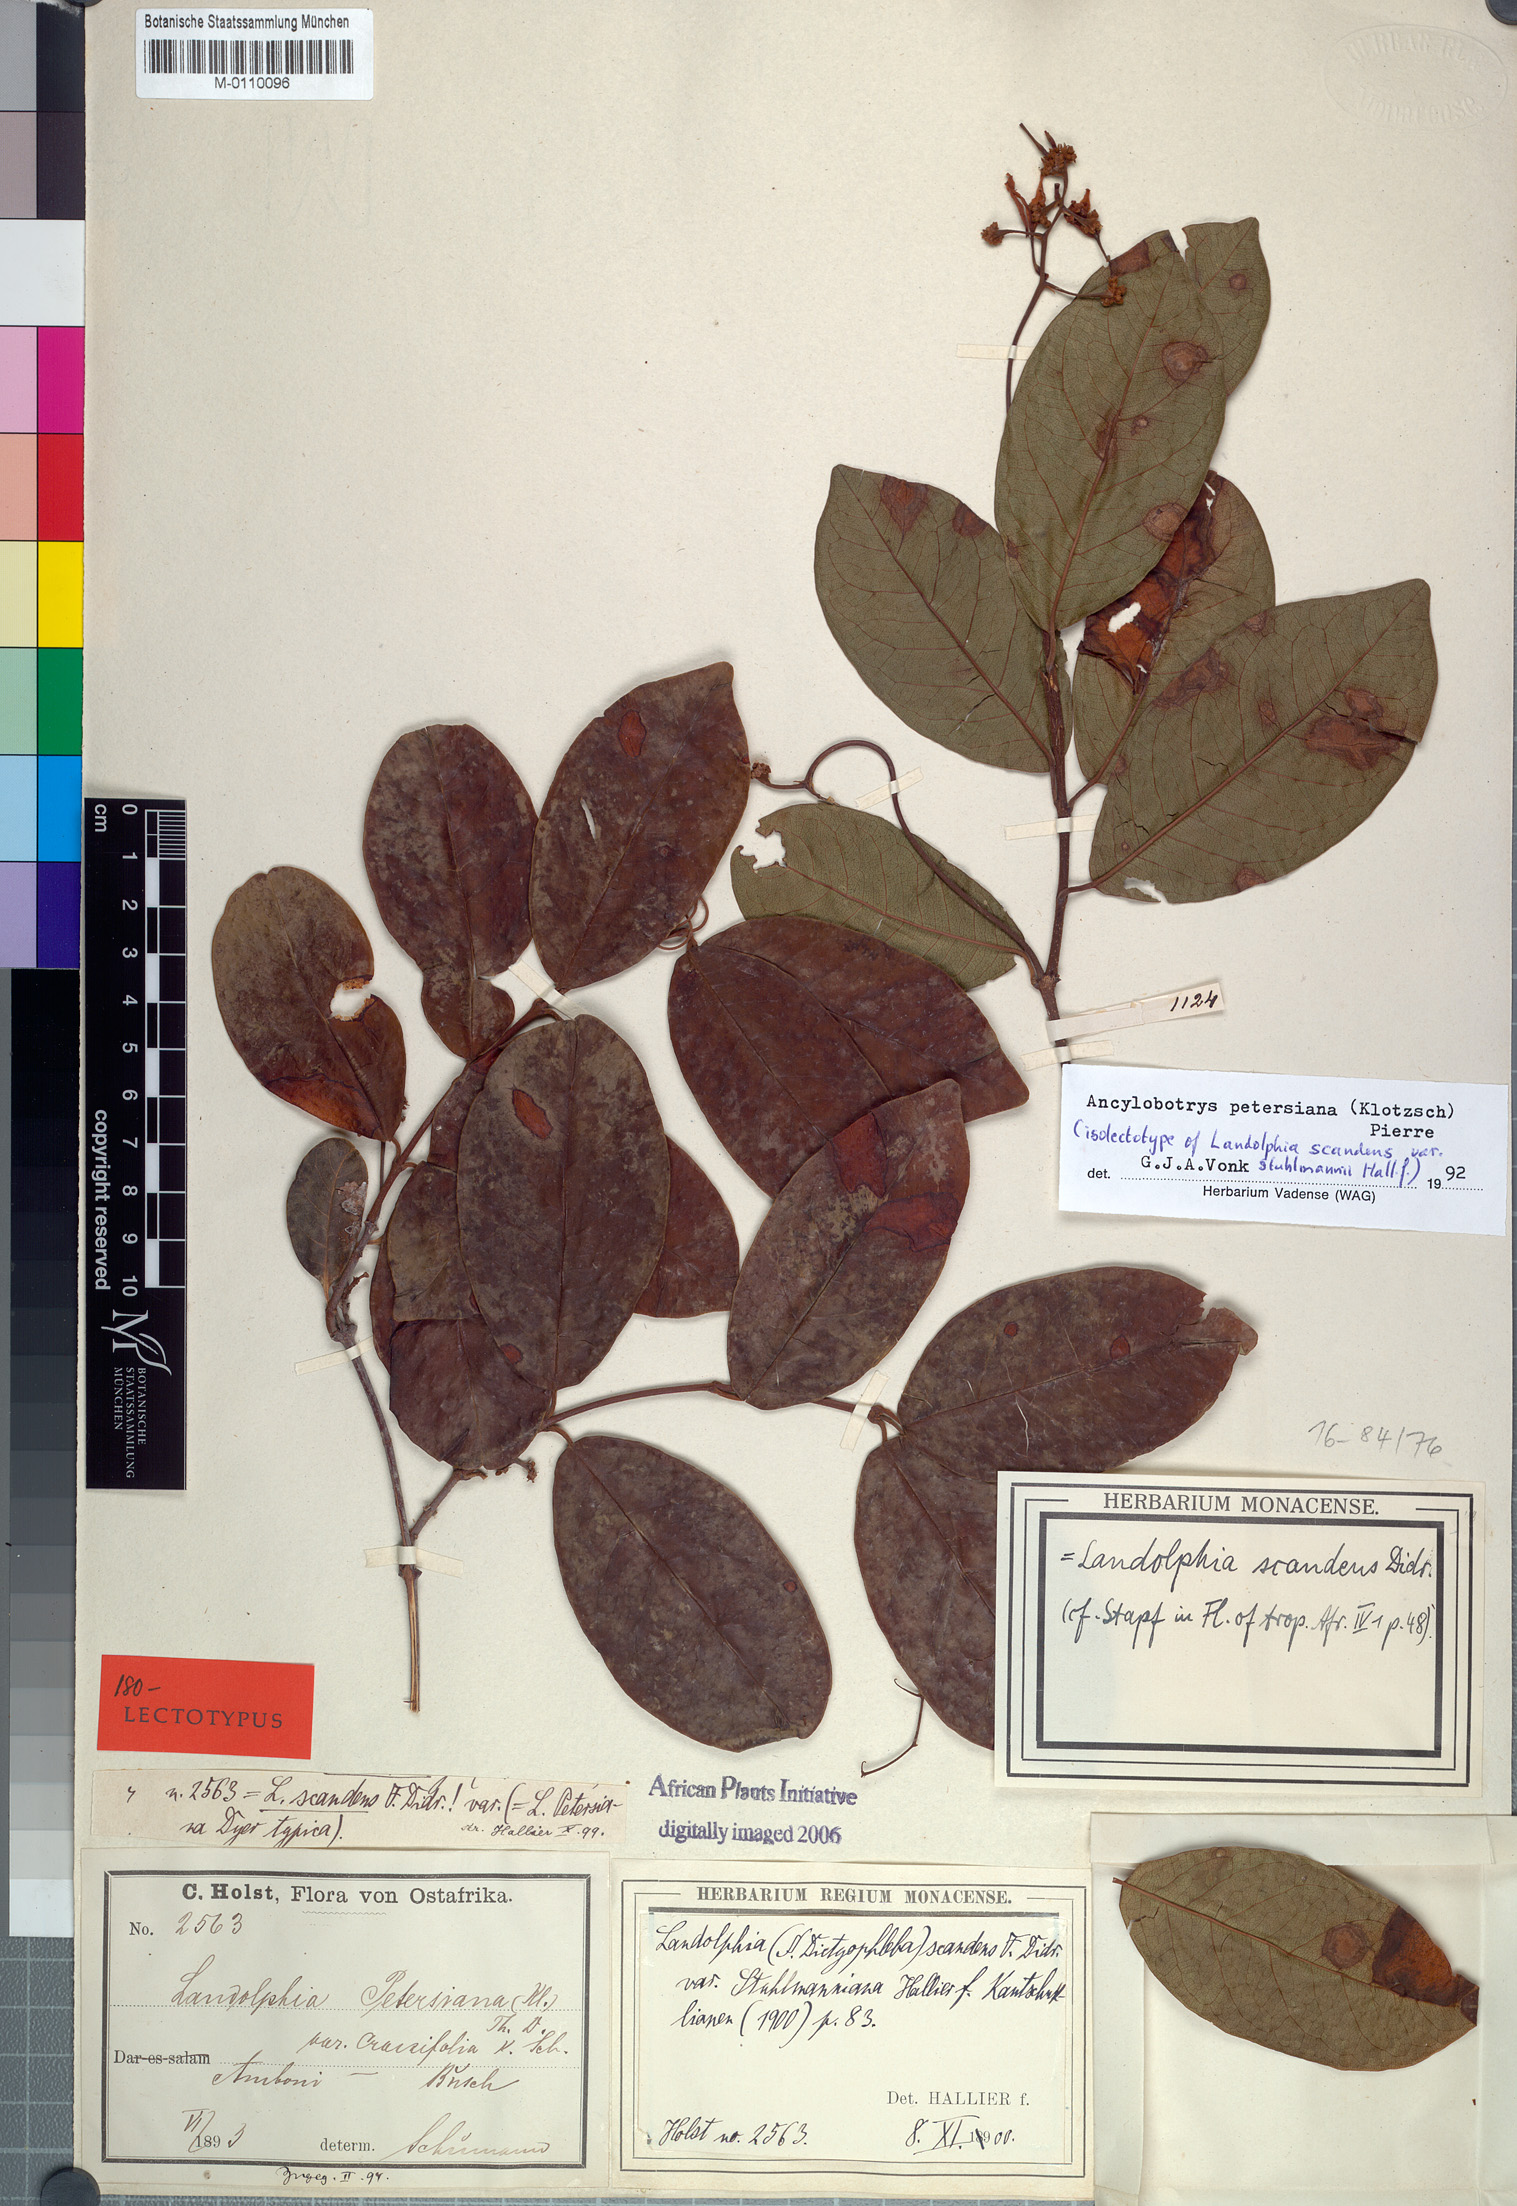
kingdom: Plantae
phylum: Tracheophyta
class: Magnoliopsida
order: Gentianales
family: Apocynaceae
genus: Ancylobotrys
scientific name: Ancylobotrys petersiana
